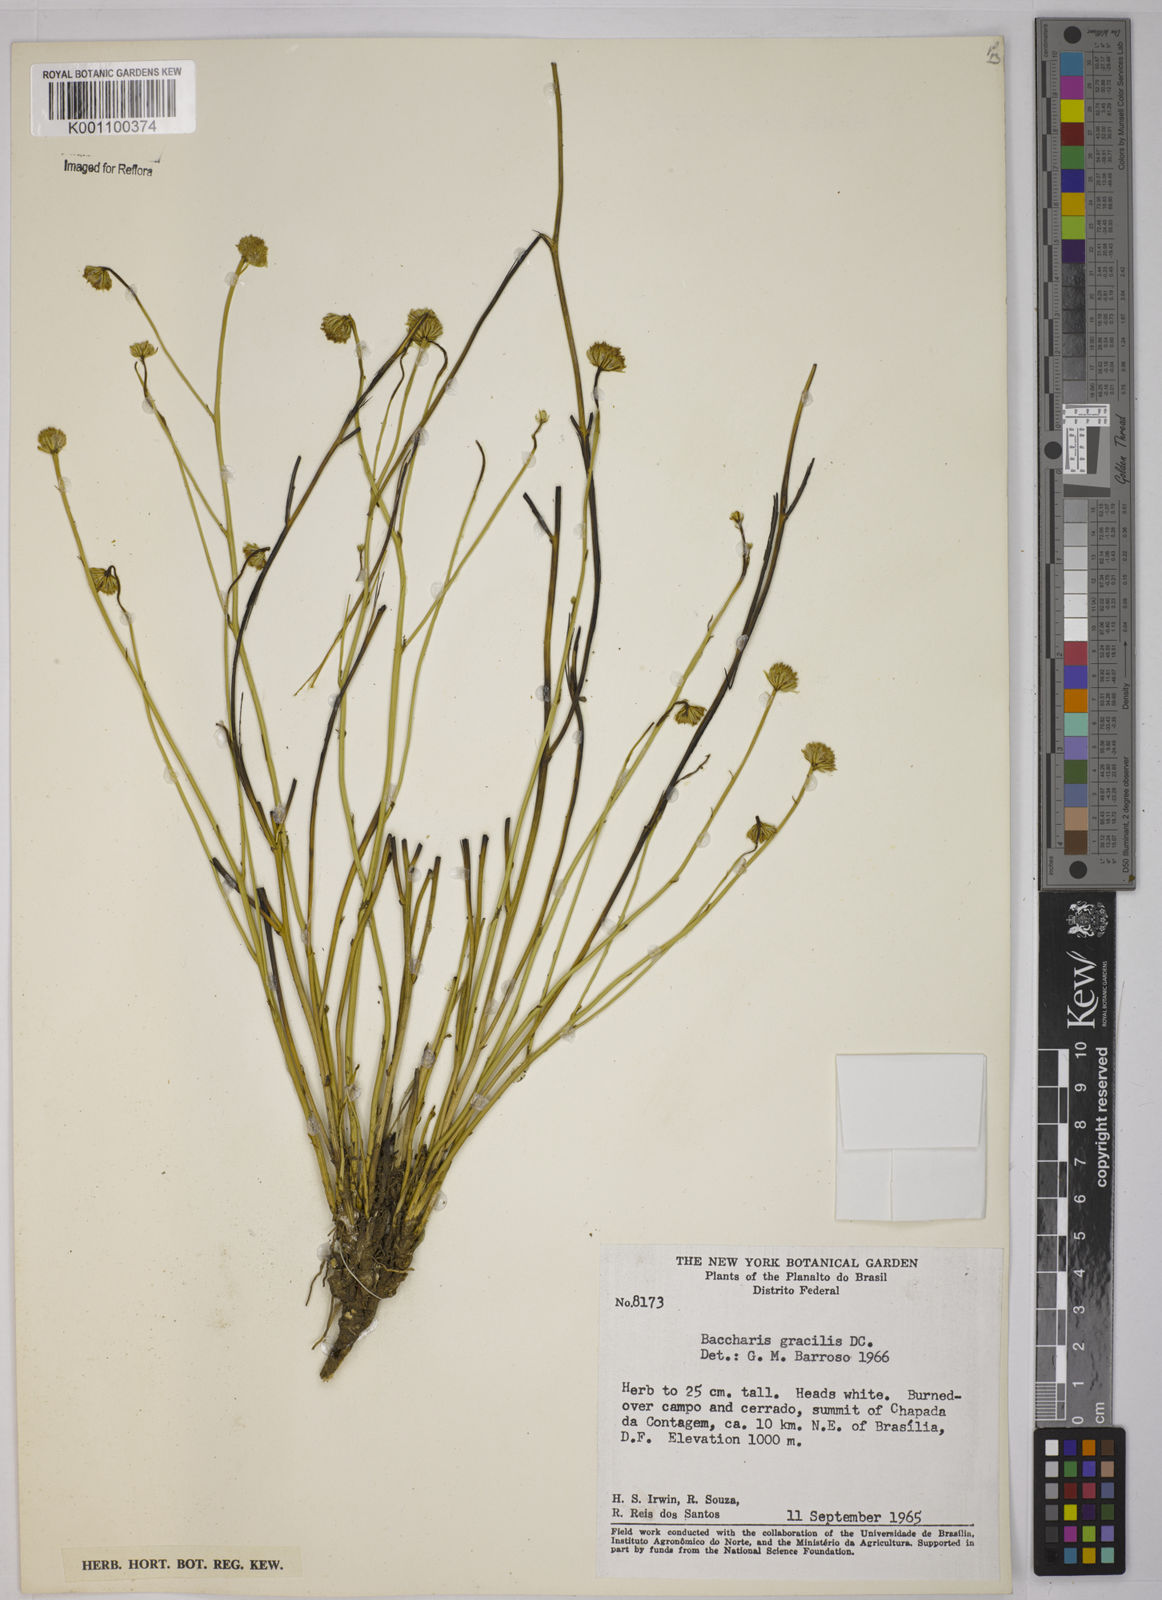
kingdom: Plantae
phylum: Tracheophyta
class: Magnoliopsida
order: Asterales
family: Asteraceae
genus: Baccharis
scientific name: Baccharis orbignyana
